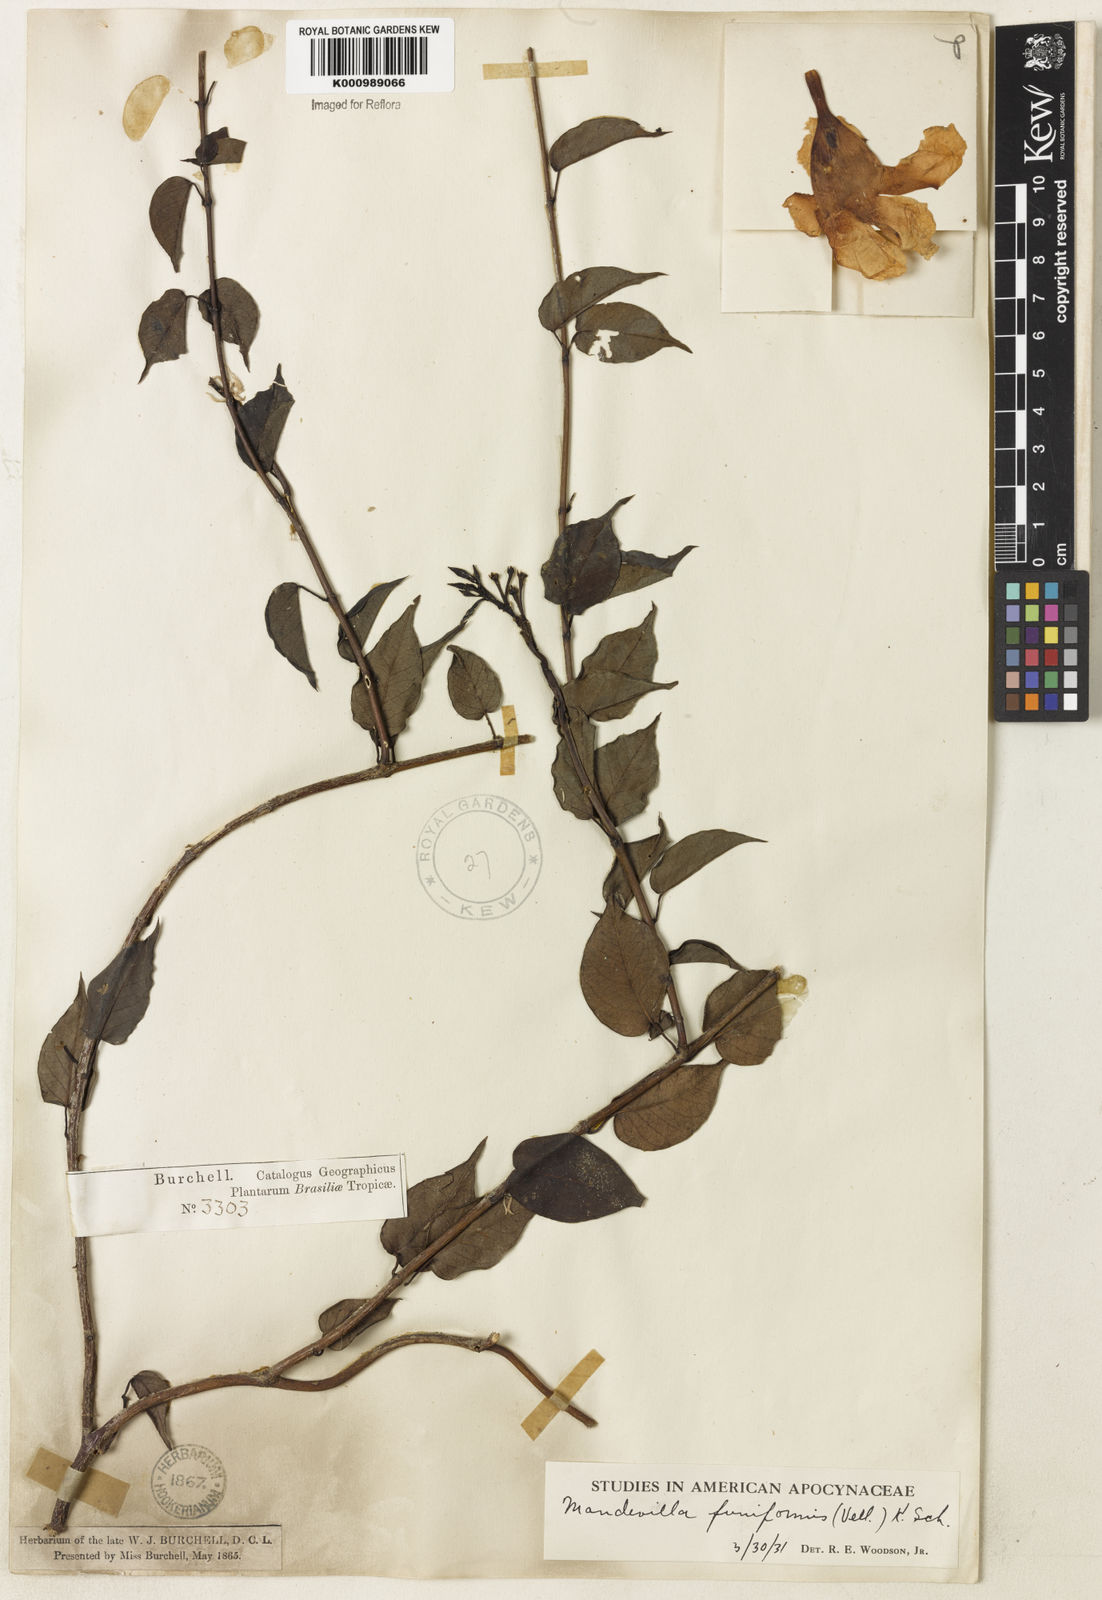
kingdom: Plantae
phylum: Tracheophyta
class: Magnoliopsida
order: Gentianales
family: Apocynaceae
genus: Mandevilla
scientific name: Mandevilla funiformis
